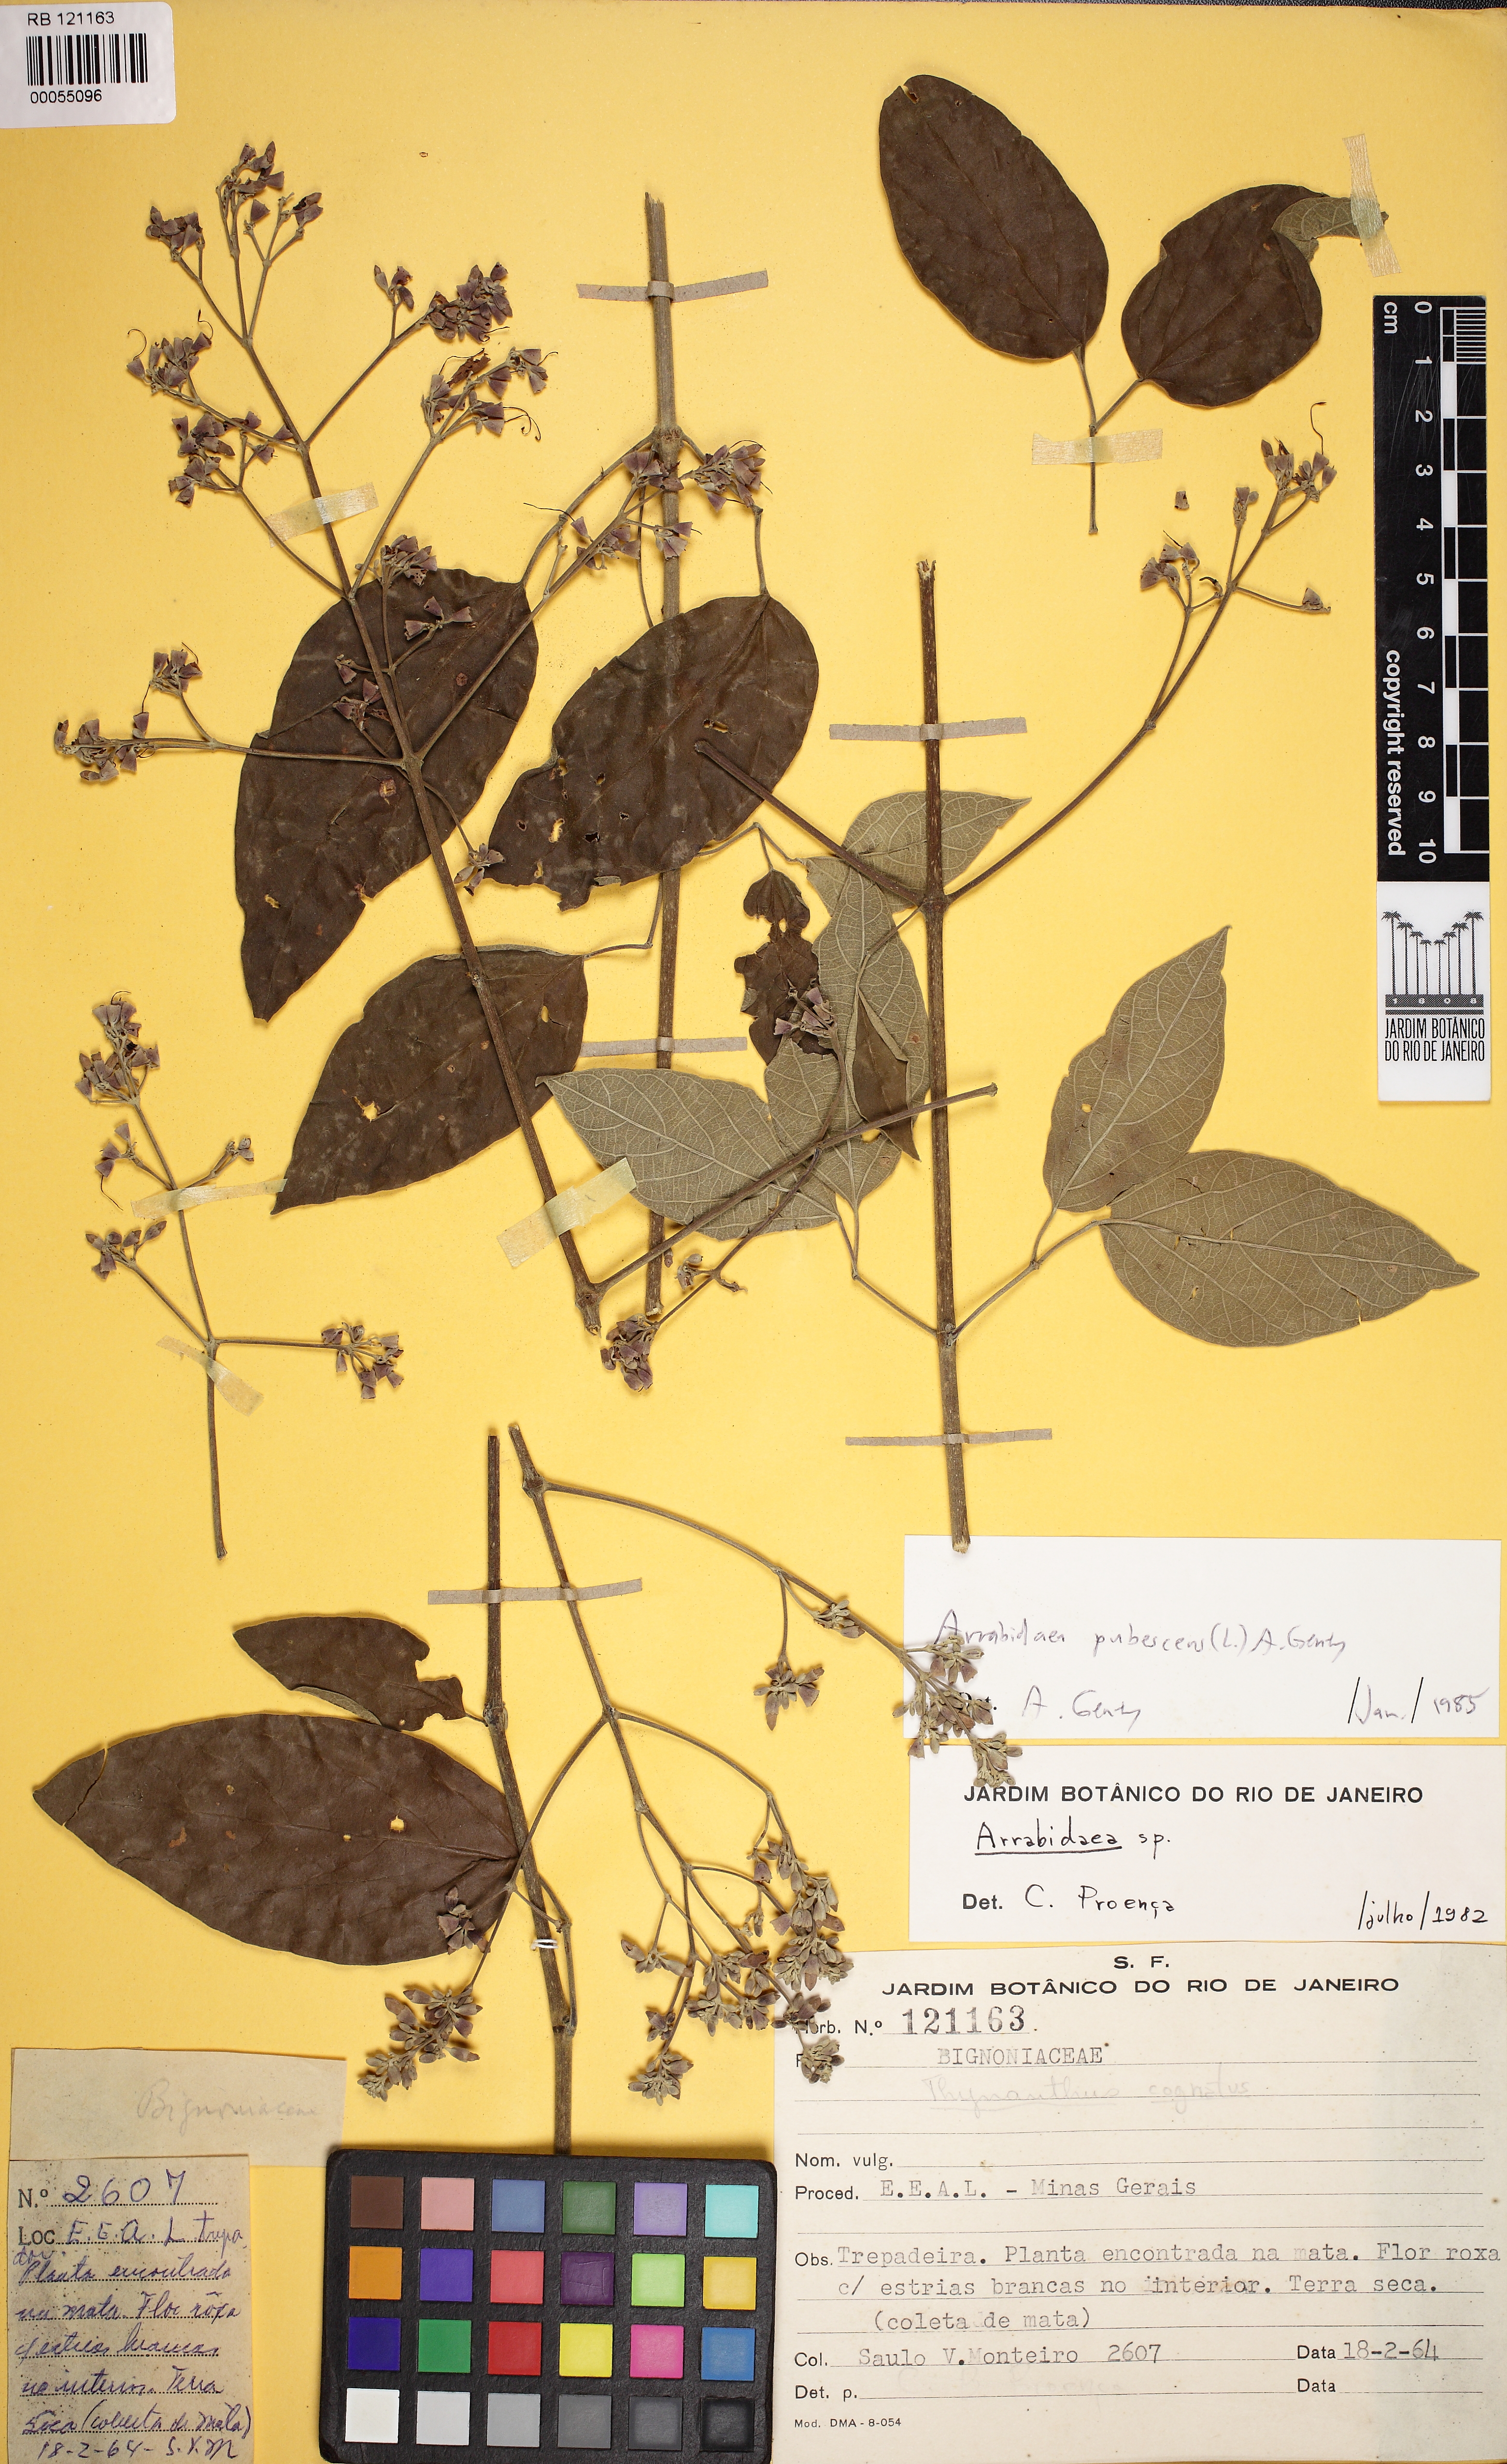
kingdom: Plantae
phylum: Tracheophyta
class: Magnoliopsida
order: Lamiales
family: Bignoniaceae
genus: Fridericia
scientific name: Fridericia pubescens
